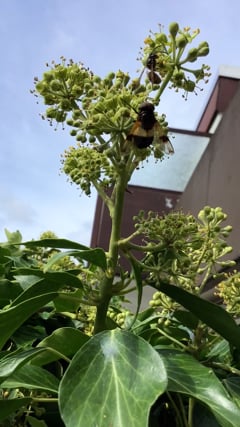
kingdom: Animalia
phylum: Arthropoda
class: Insecta
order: Diptera
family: Syrphidae
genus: Volucella
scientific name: Volucella pellucens
